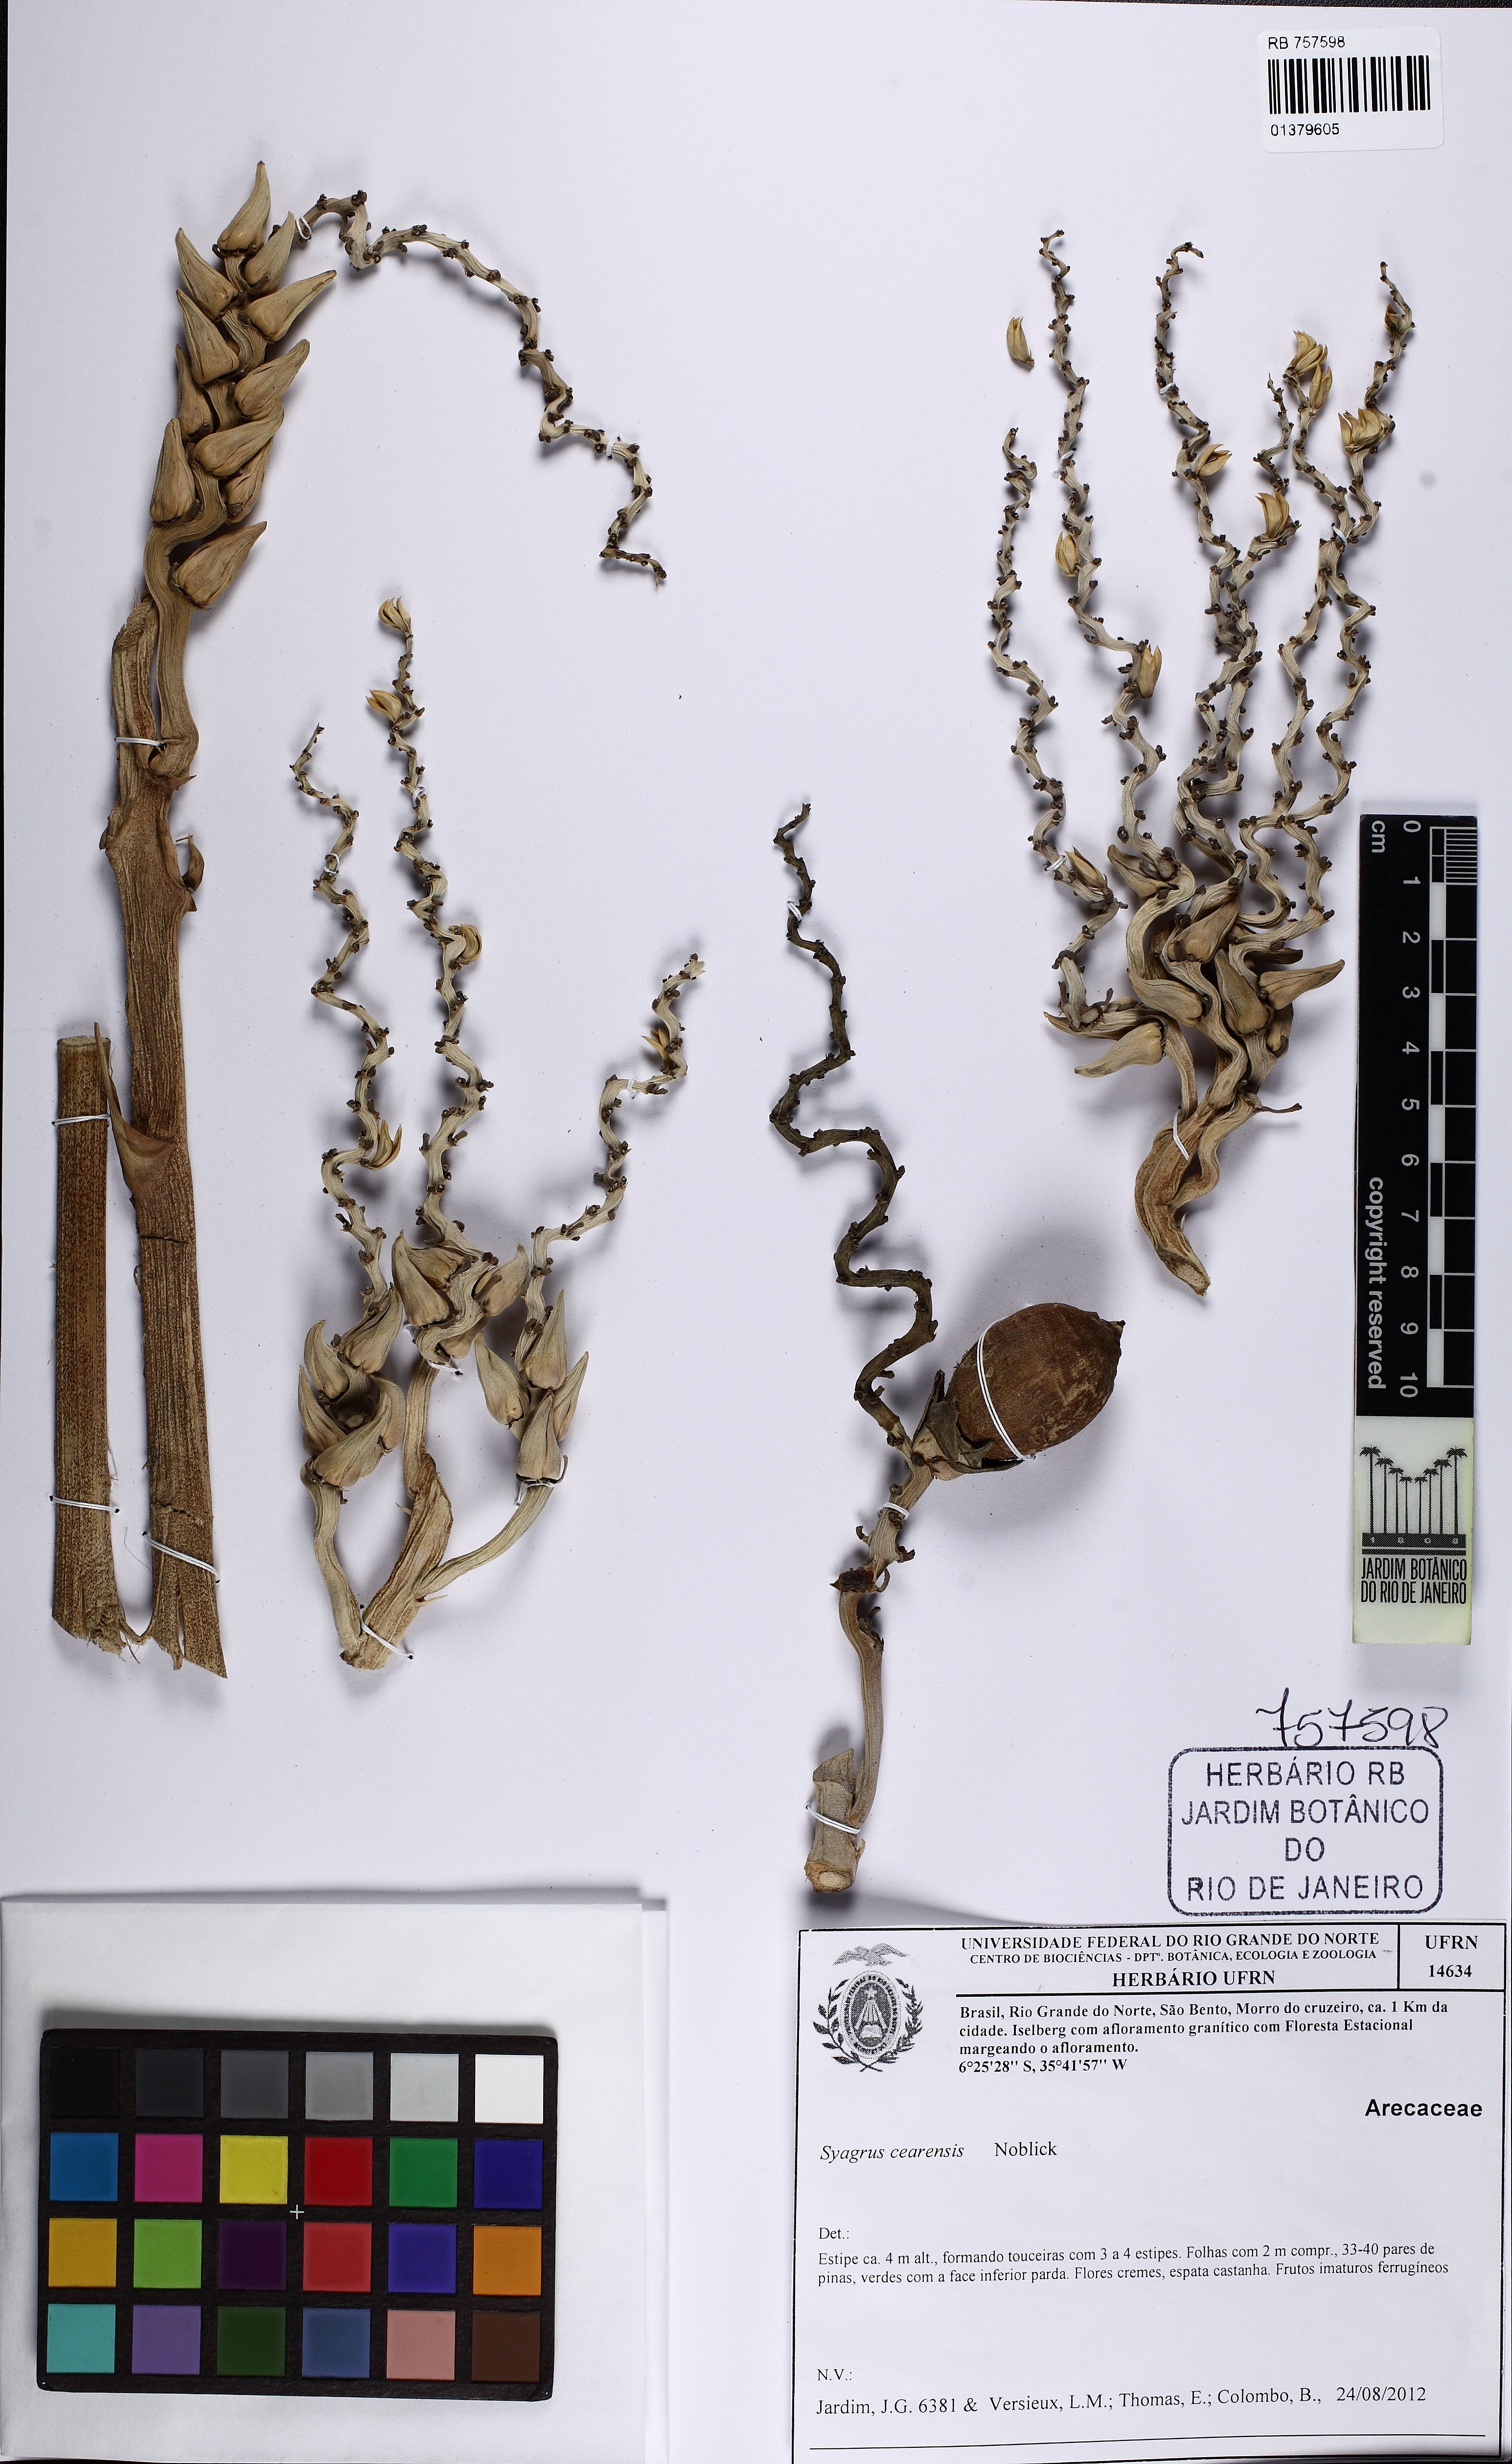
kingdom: Plantae
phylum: Tracheophyta
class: Liliopsida
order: Arecales
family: Arecaceae
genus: Syagrus
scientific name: Syagrus cearensis
